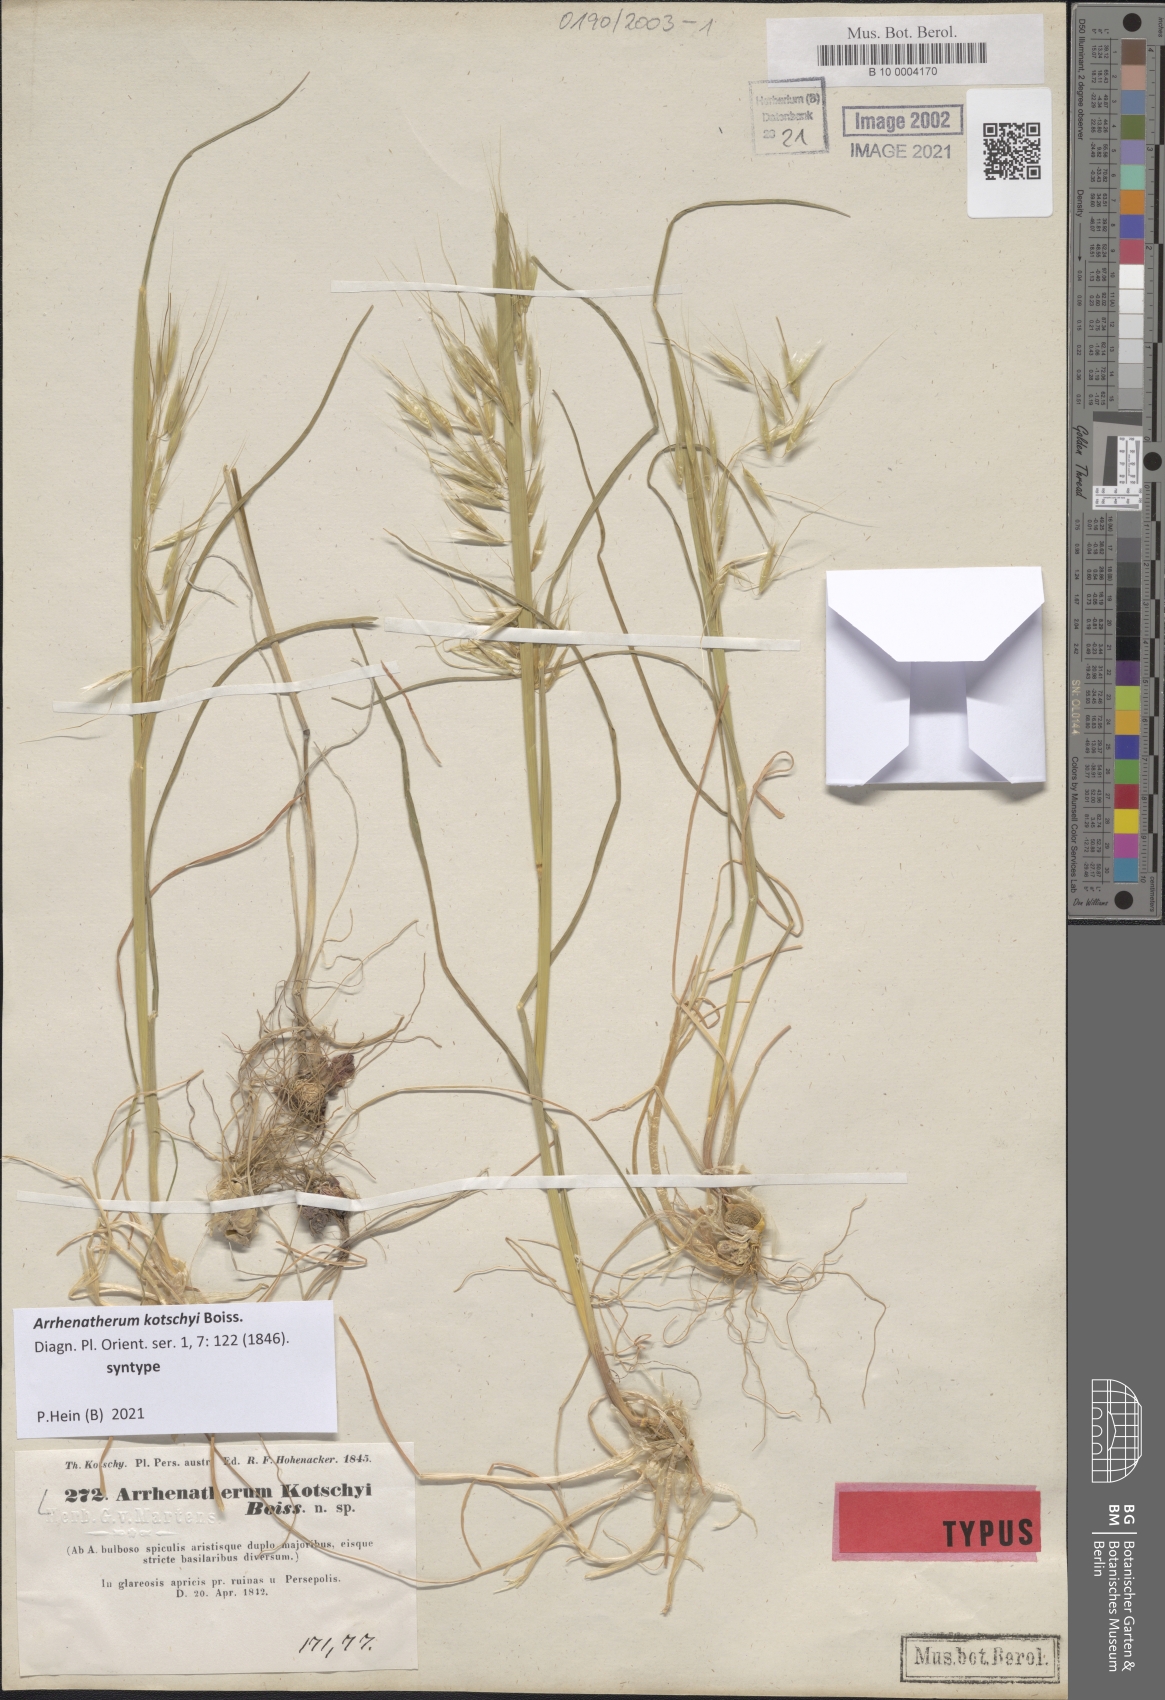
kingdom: Plantae
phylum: Tracheophyta
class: Liliopsida
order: Poales
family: Poaceae
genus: Arrhenatherum
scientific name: Arrhenatherum kotschyi
